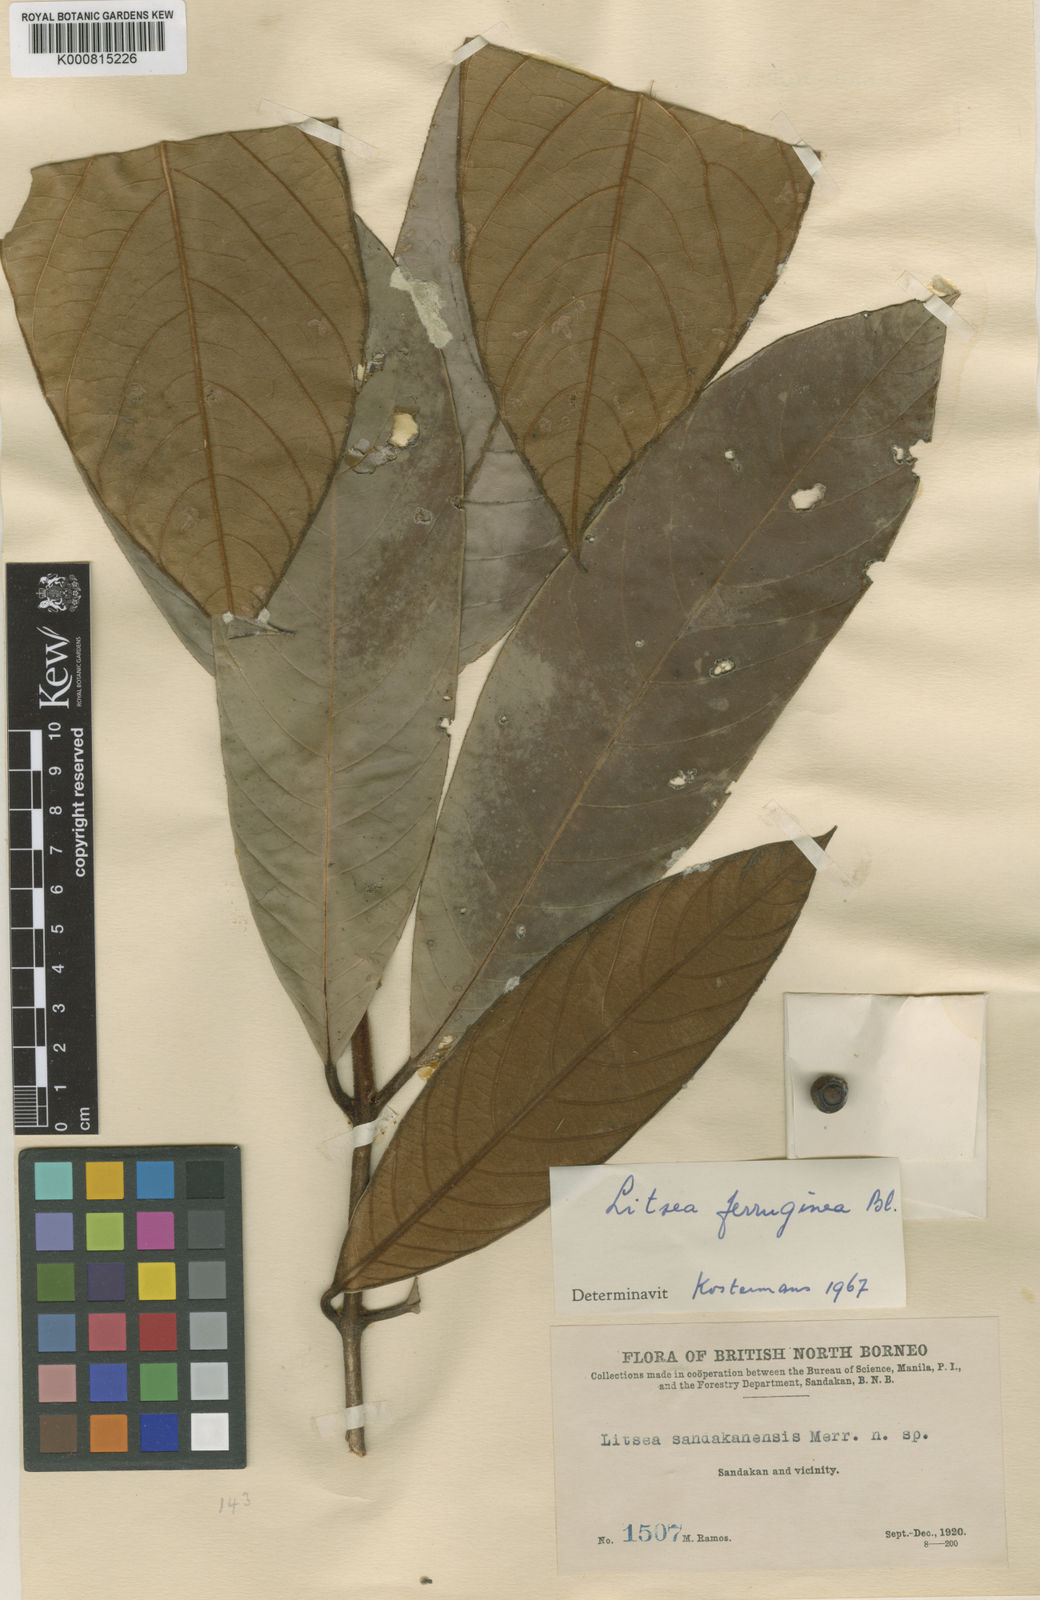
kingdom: Plantae
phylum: Tracheophyta
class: Magnoliopsida
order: Laurales
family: Lauraceae
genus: Litsea
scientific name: Litsea ferruginea
